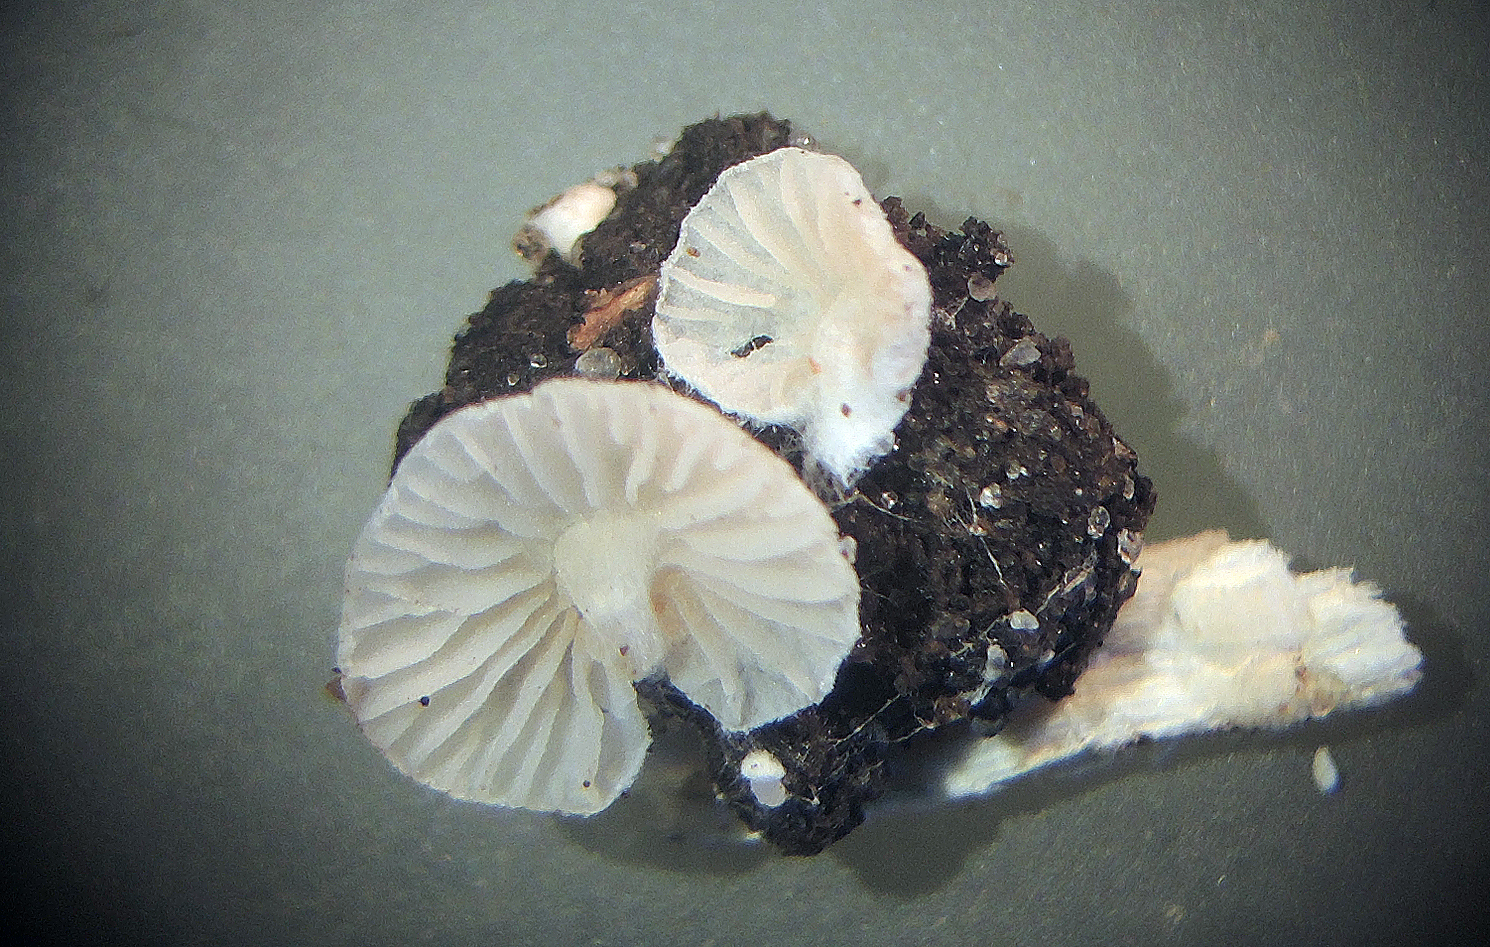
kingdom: Fungi
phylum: Basidiomycota
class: Agaricomycetes
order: Agaricales
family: Entolomataceae
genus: Entoloma
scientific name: Entoloma jahnii
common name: muslinge-rødblad
